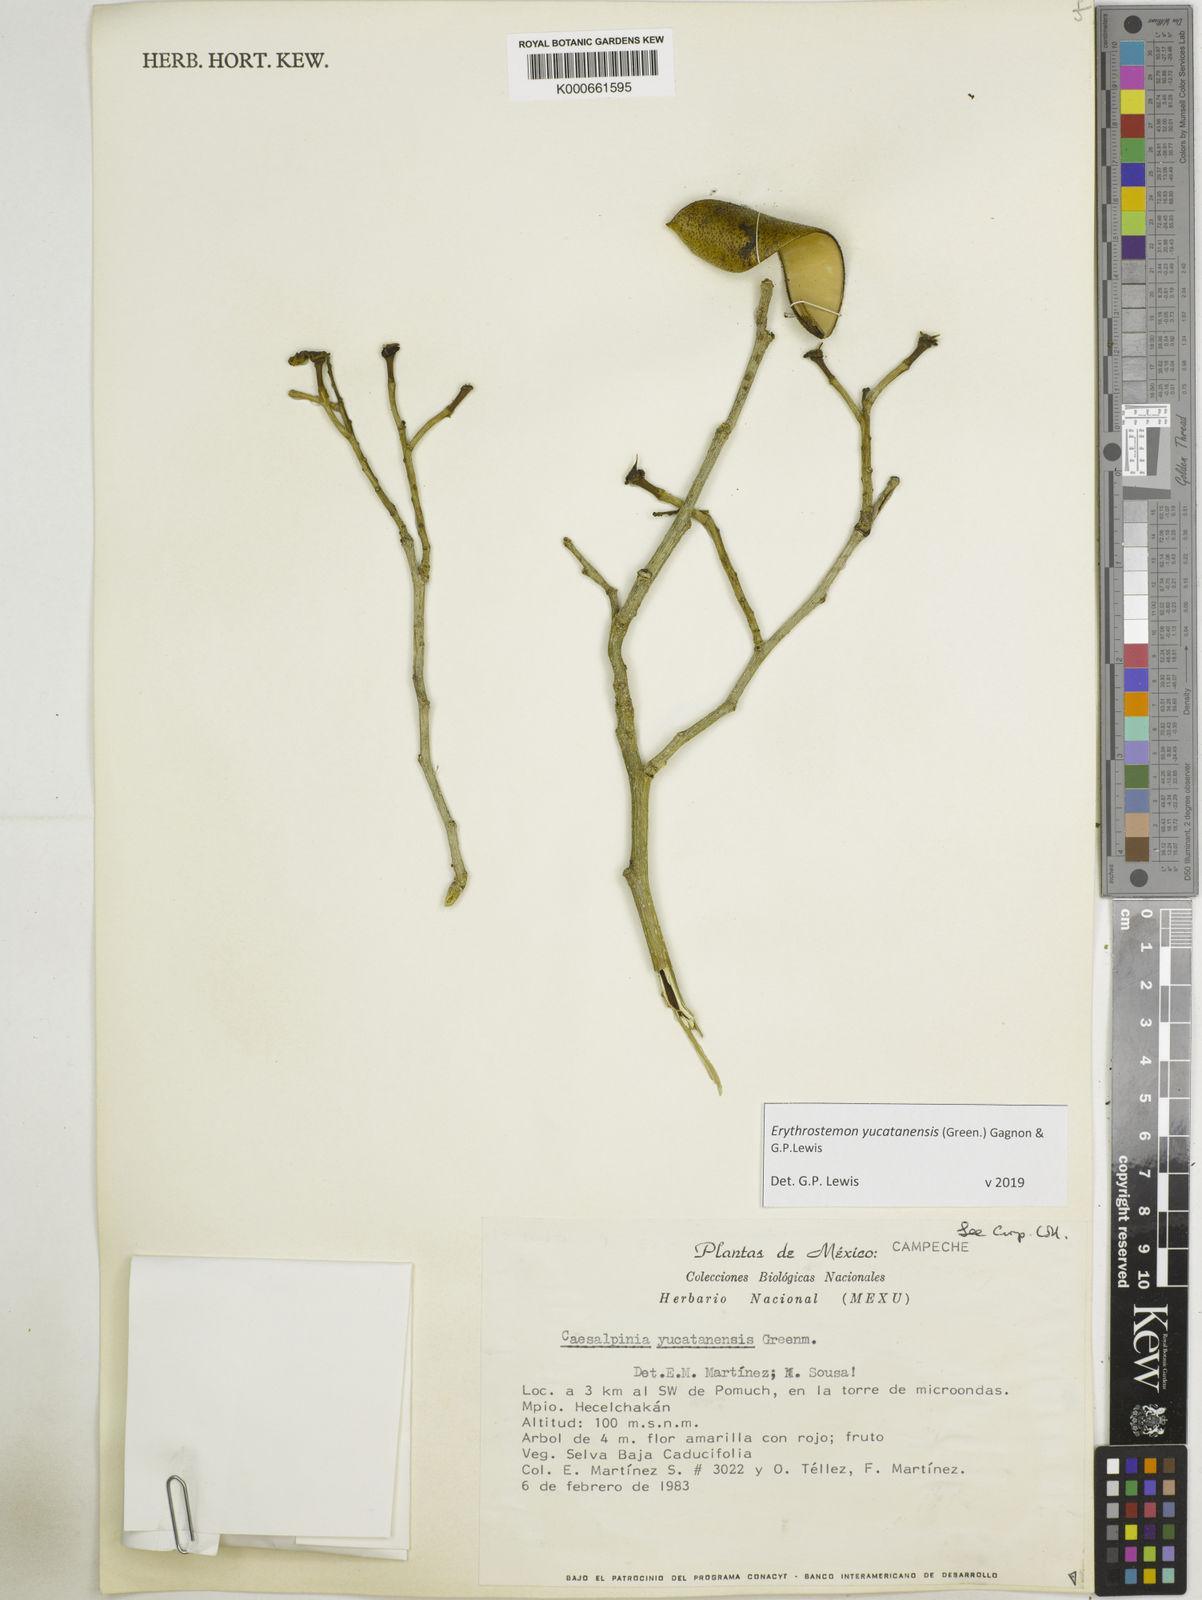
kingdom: Plantae
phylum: Tracheophyta
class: Magnoliopsida
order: Fabales
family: Fabaceae
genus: Caesalpinia
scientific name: Caesalpinia
